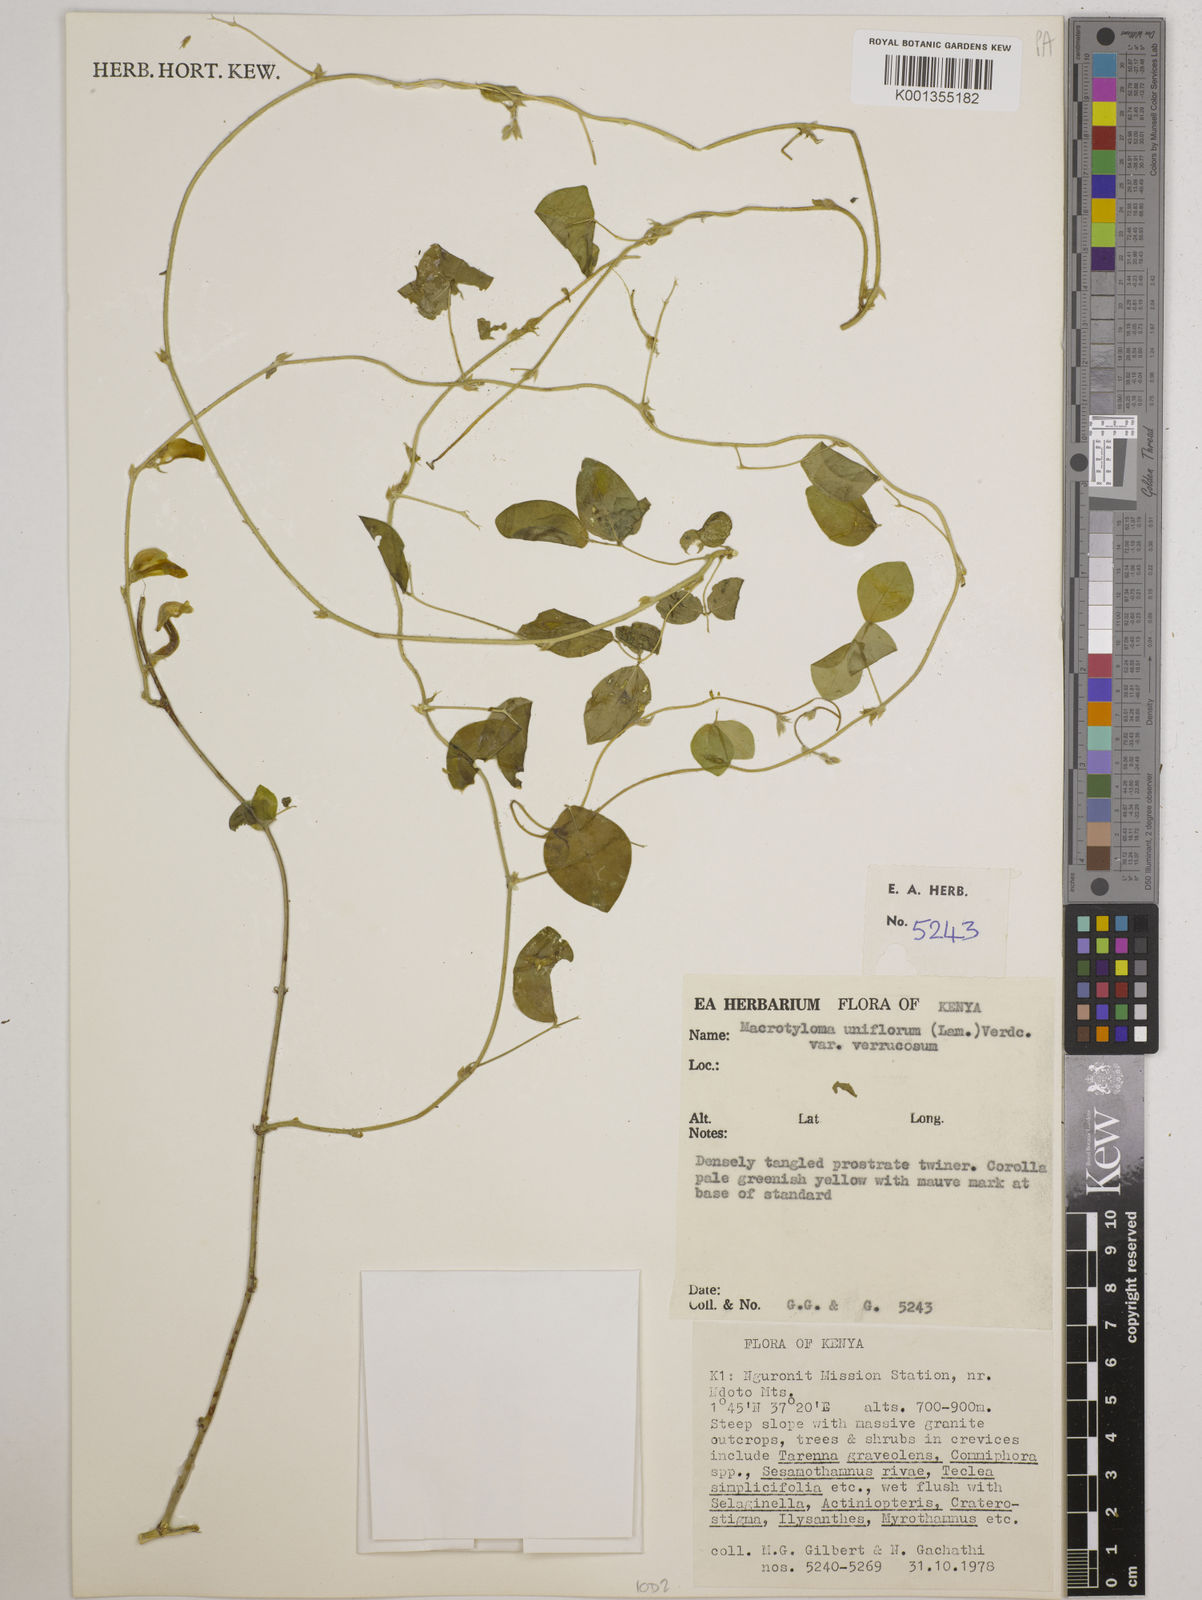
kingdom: Plantae
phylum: Tracheophyta
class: Magnoliopsida
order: Fabales
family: Fabaceae
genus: Macrotyloma
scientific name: Macrotyloma
